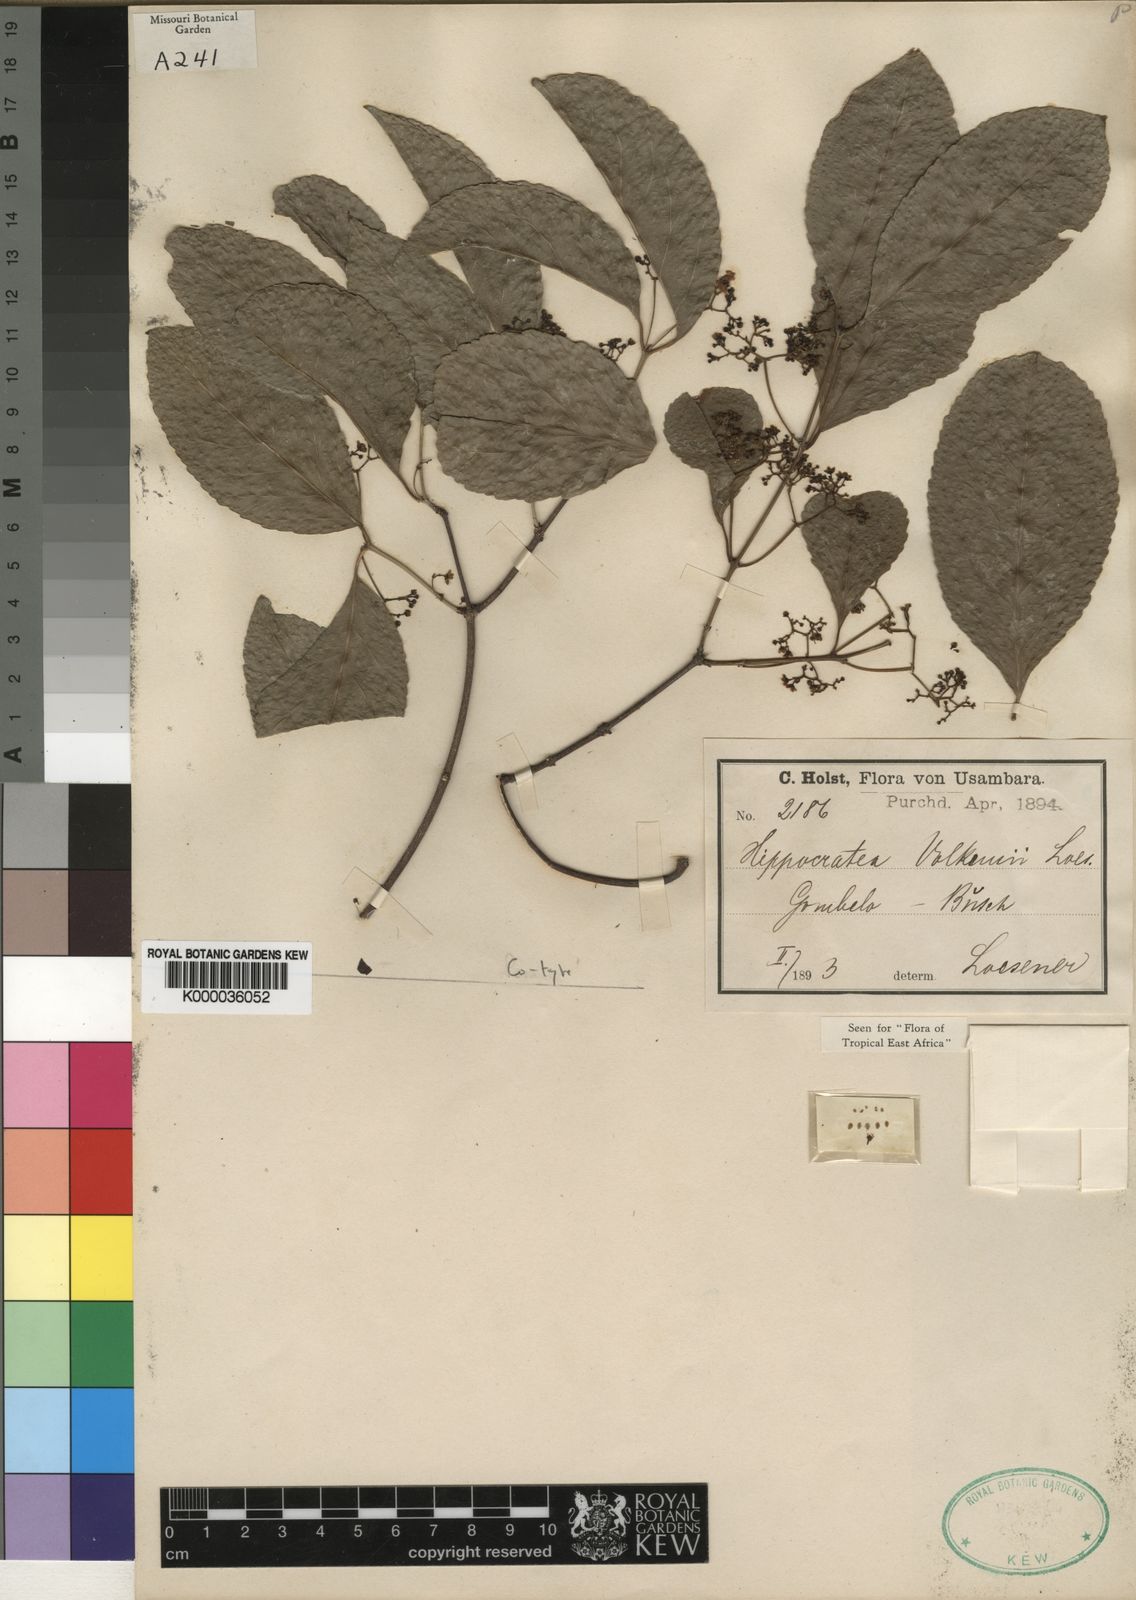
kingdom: Plantae
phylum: Tracheophyta
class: Magnoliopsida
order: Celastrales
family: Celastraceae
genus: Pristimera
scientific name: Pristimera
